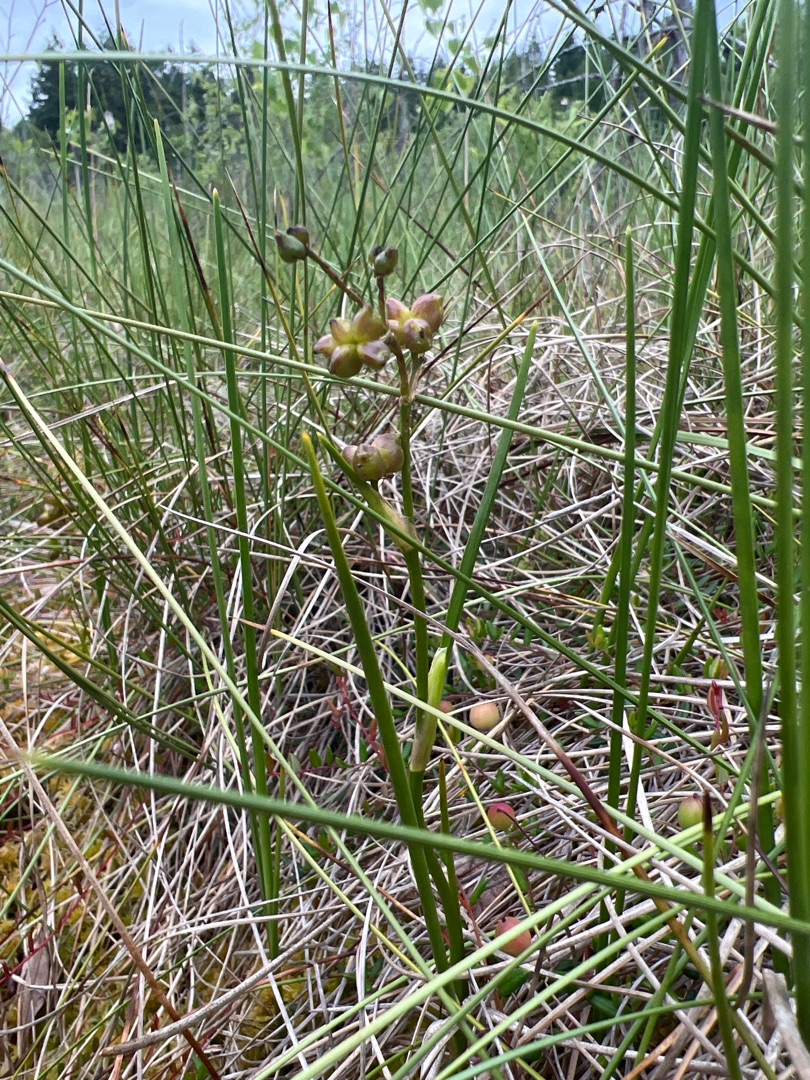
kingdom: Plantae
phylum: Tracheophyta
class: Liliopsida
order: Alismatales
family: Scheuchzeriaceae
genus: Scheuchzeria
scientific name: Scheuchzeria palustris
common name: Blomstersiv
